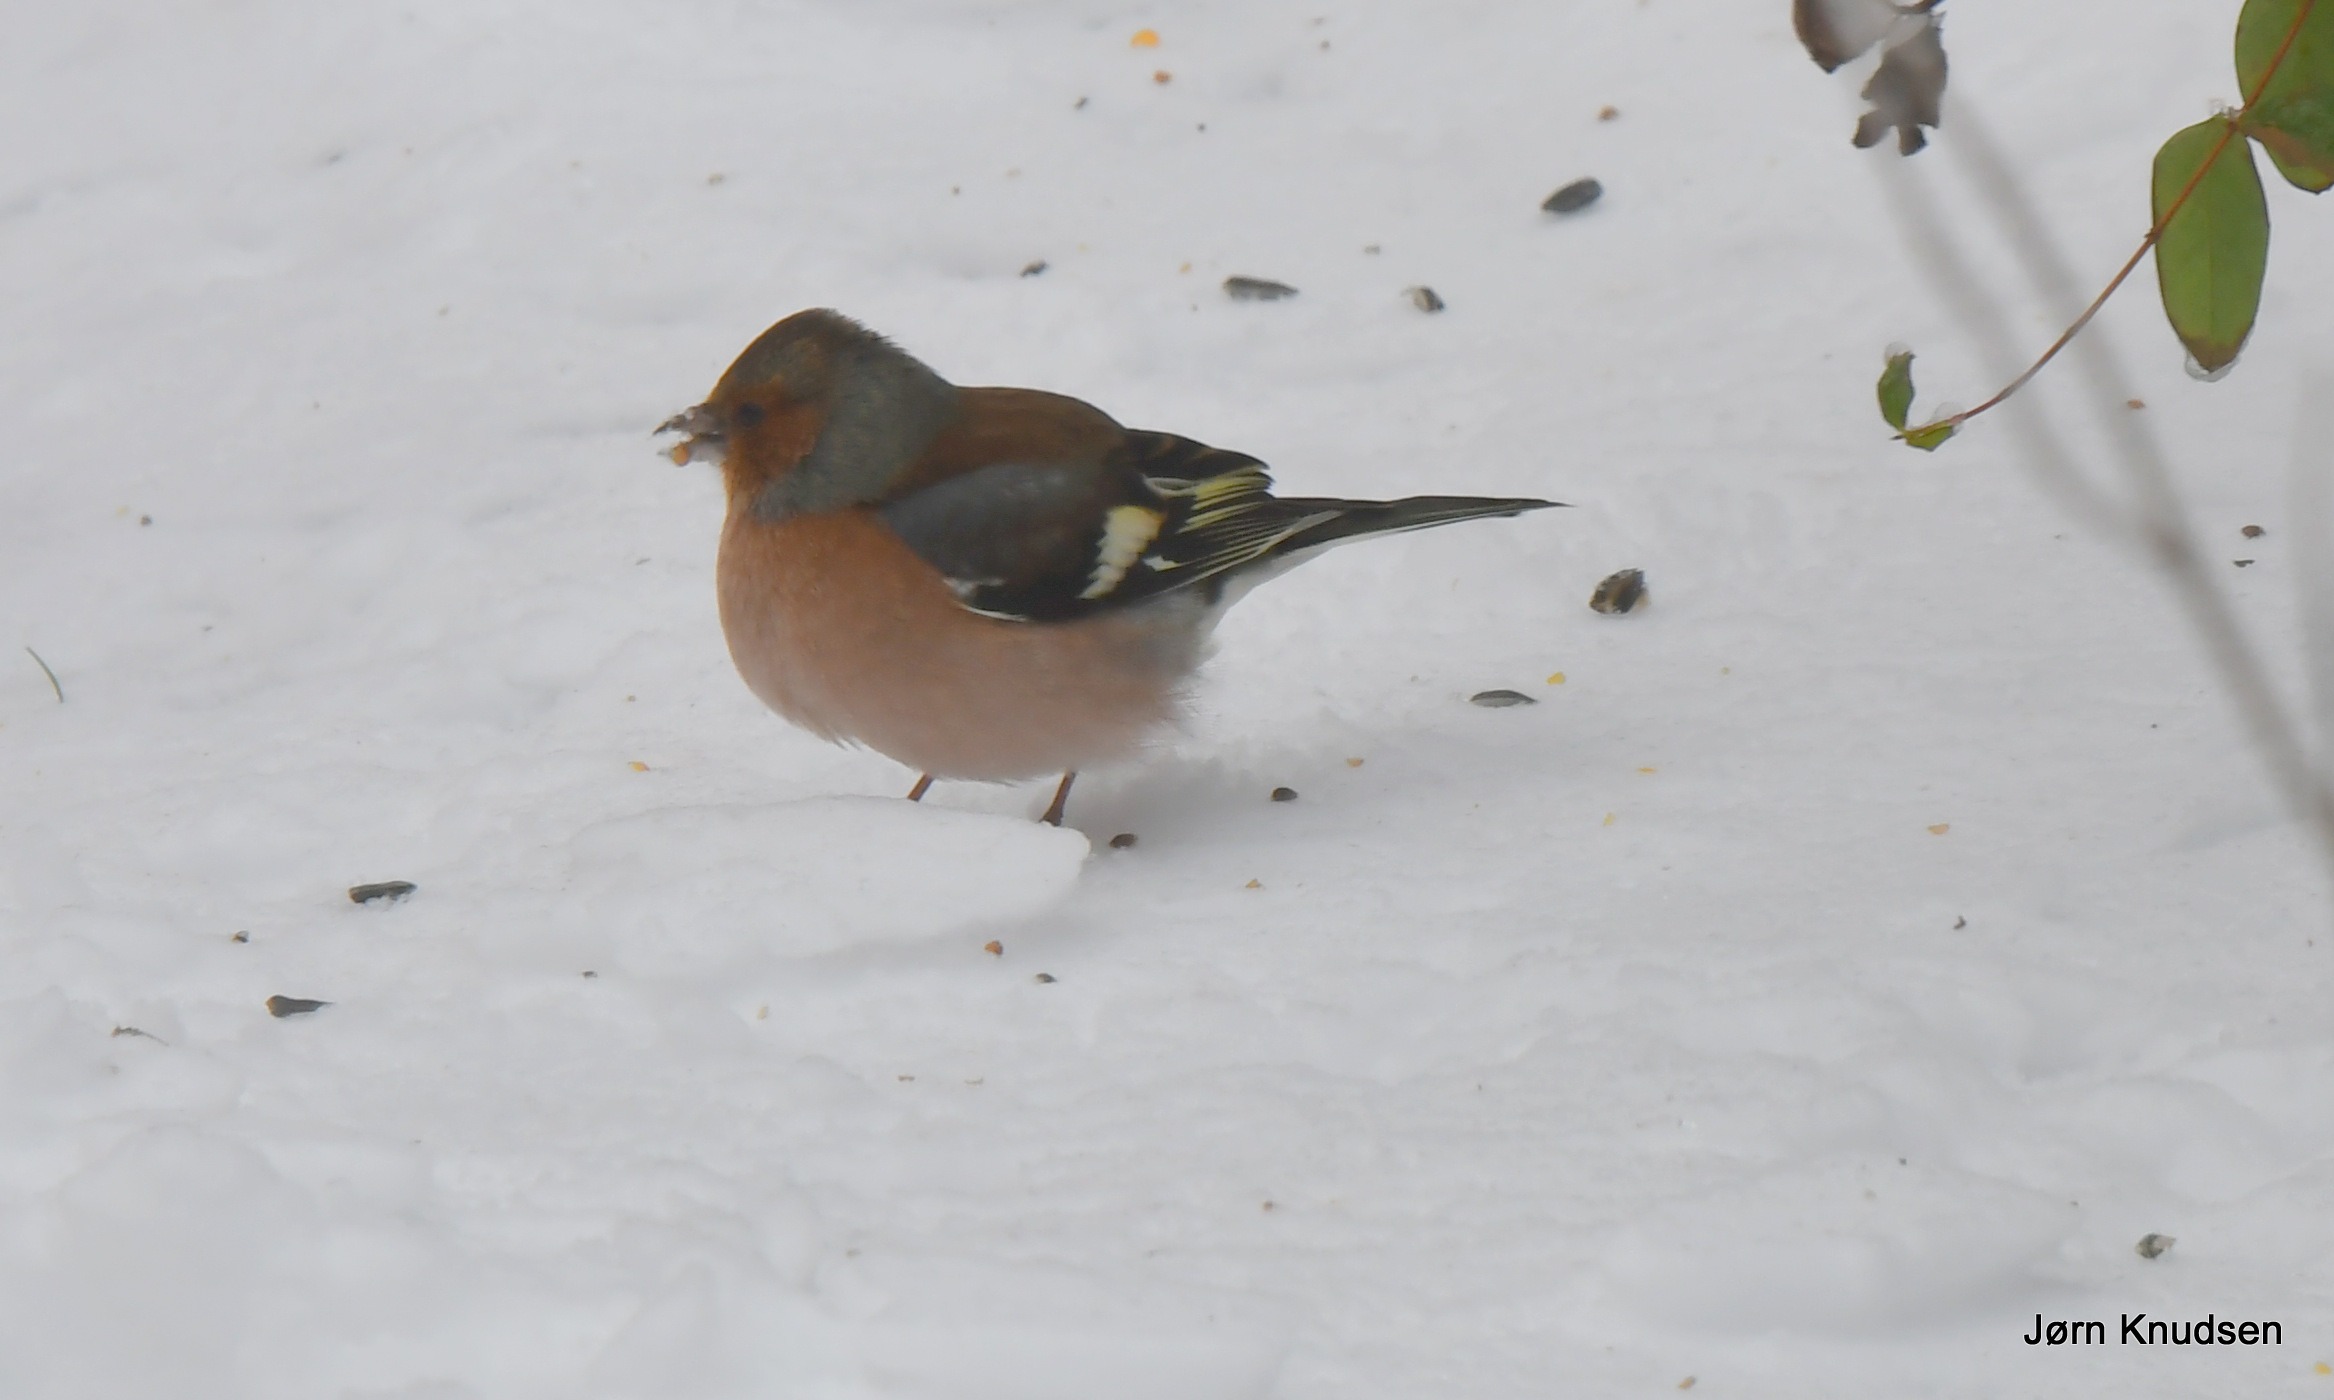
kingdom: Animalia
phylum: Chordata
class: Aves
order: Passeriformes
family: Fringillidae
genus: Fringilla
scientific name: Fringilla coelebs
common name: Bogfinke
